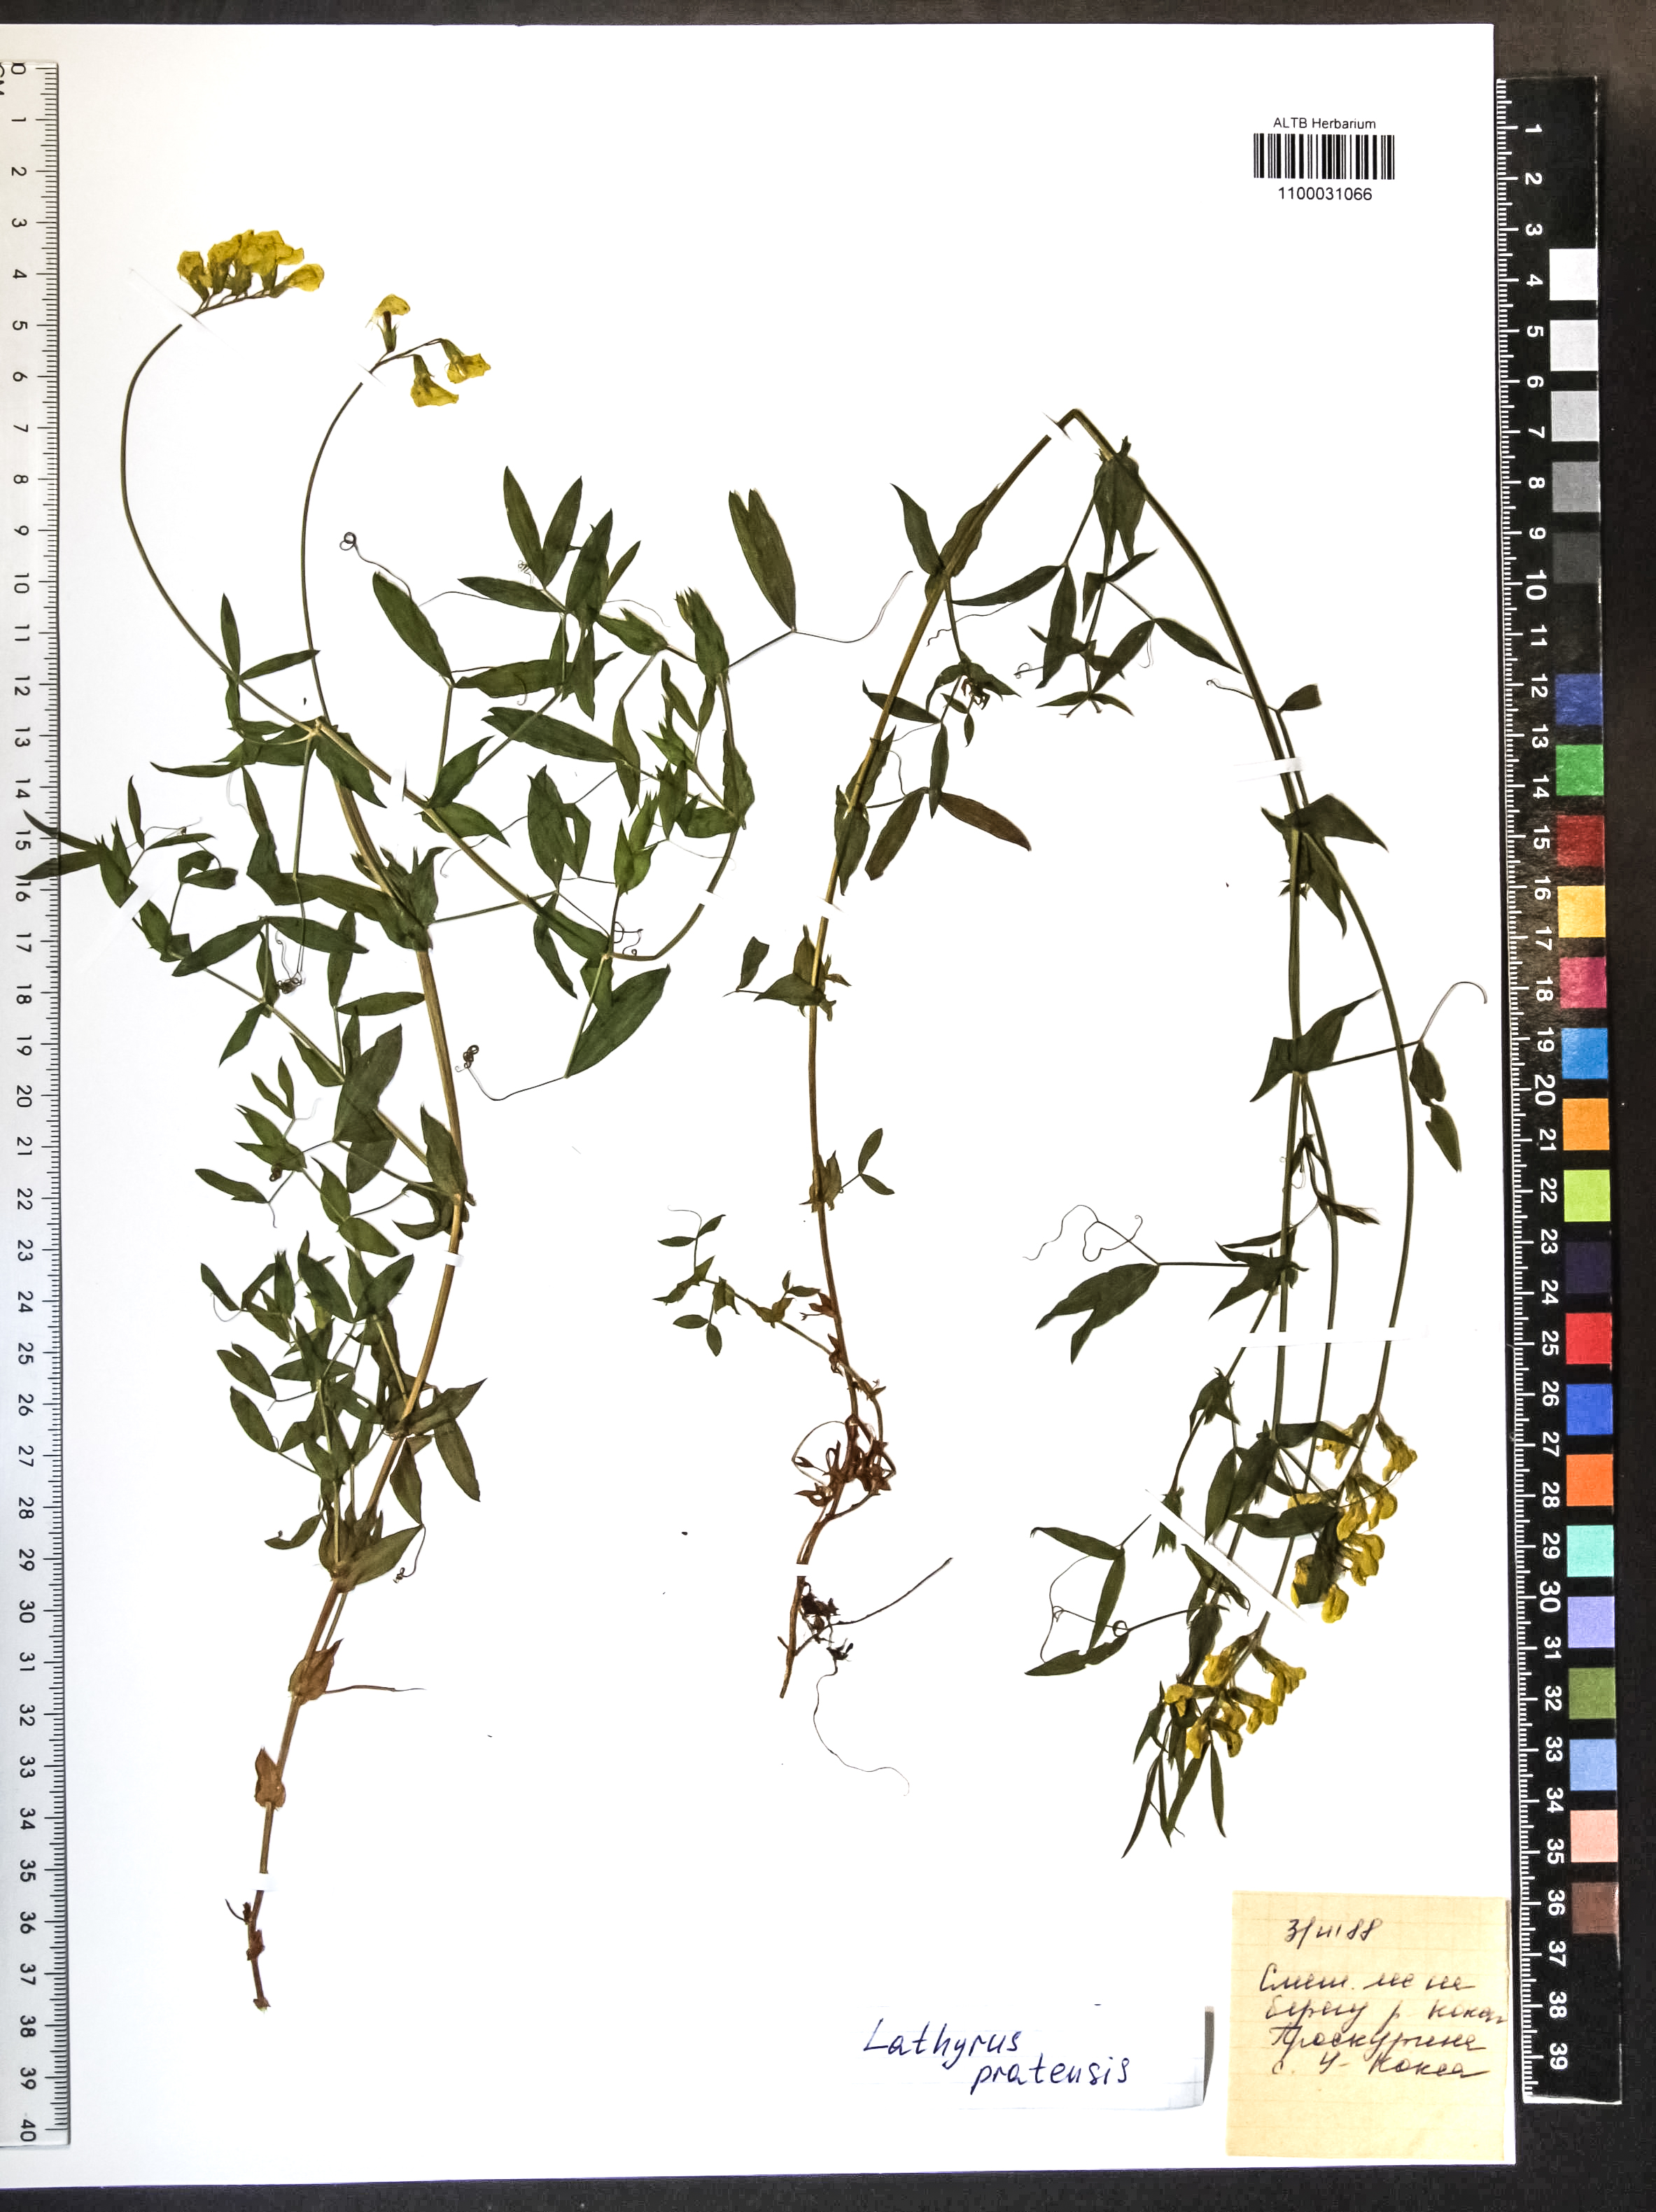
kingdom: Plantae
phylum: Tracheophyta
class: Magnoliopsida
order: Fabales
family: Fabaceae
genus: Lathyrus
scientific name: Lathyrus pratensis
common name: Meadow vetchling
